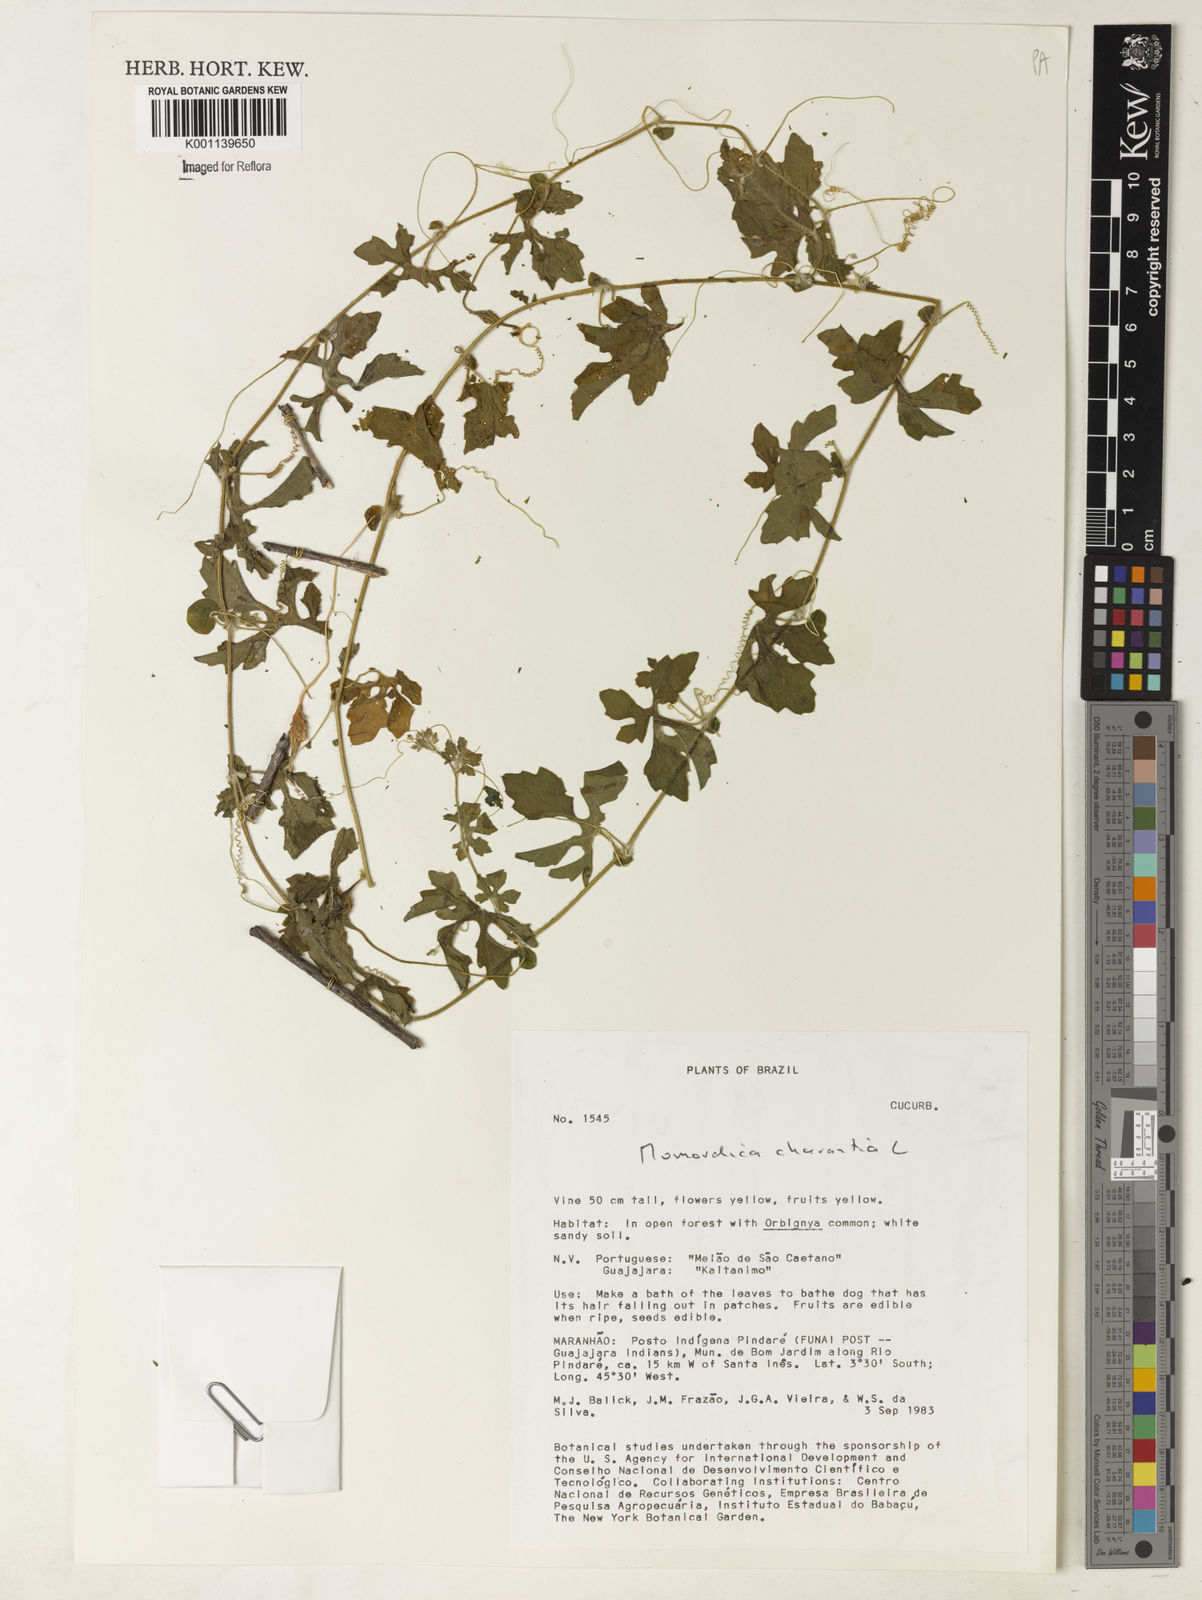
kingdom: Plantae
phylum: Tracheophyta
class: Magnoliopsida
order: Cucurbitales
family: Cucurbitaceae
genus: Momordica
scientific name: Momordica charantia
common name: Balsampear
